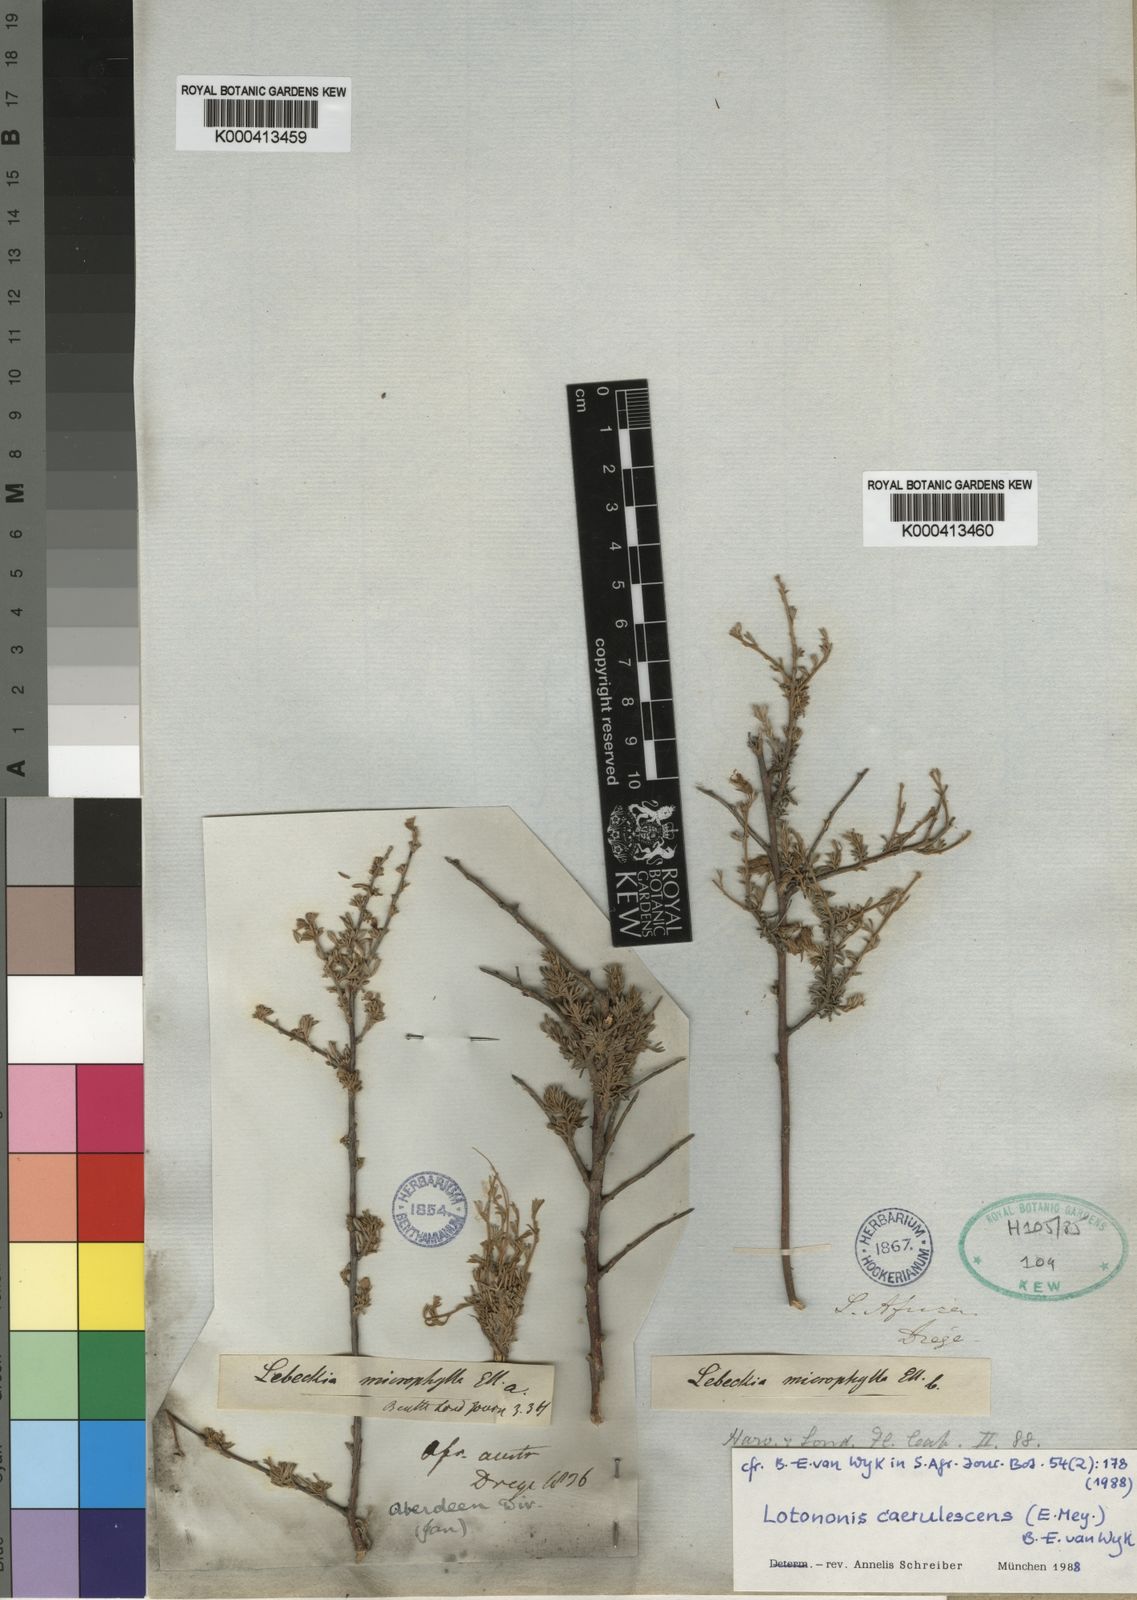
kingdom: Plantae
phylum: Tracheophyta
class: Magnoliopsida
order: Fabales
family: Fabaceae
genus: Lotononis
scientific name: Lotononis caerulescens
